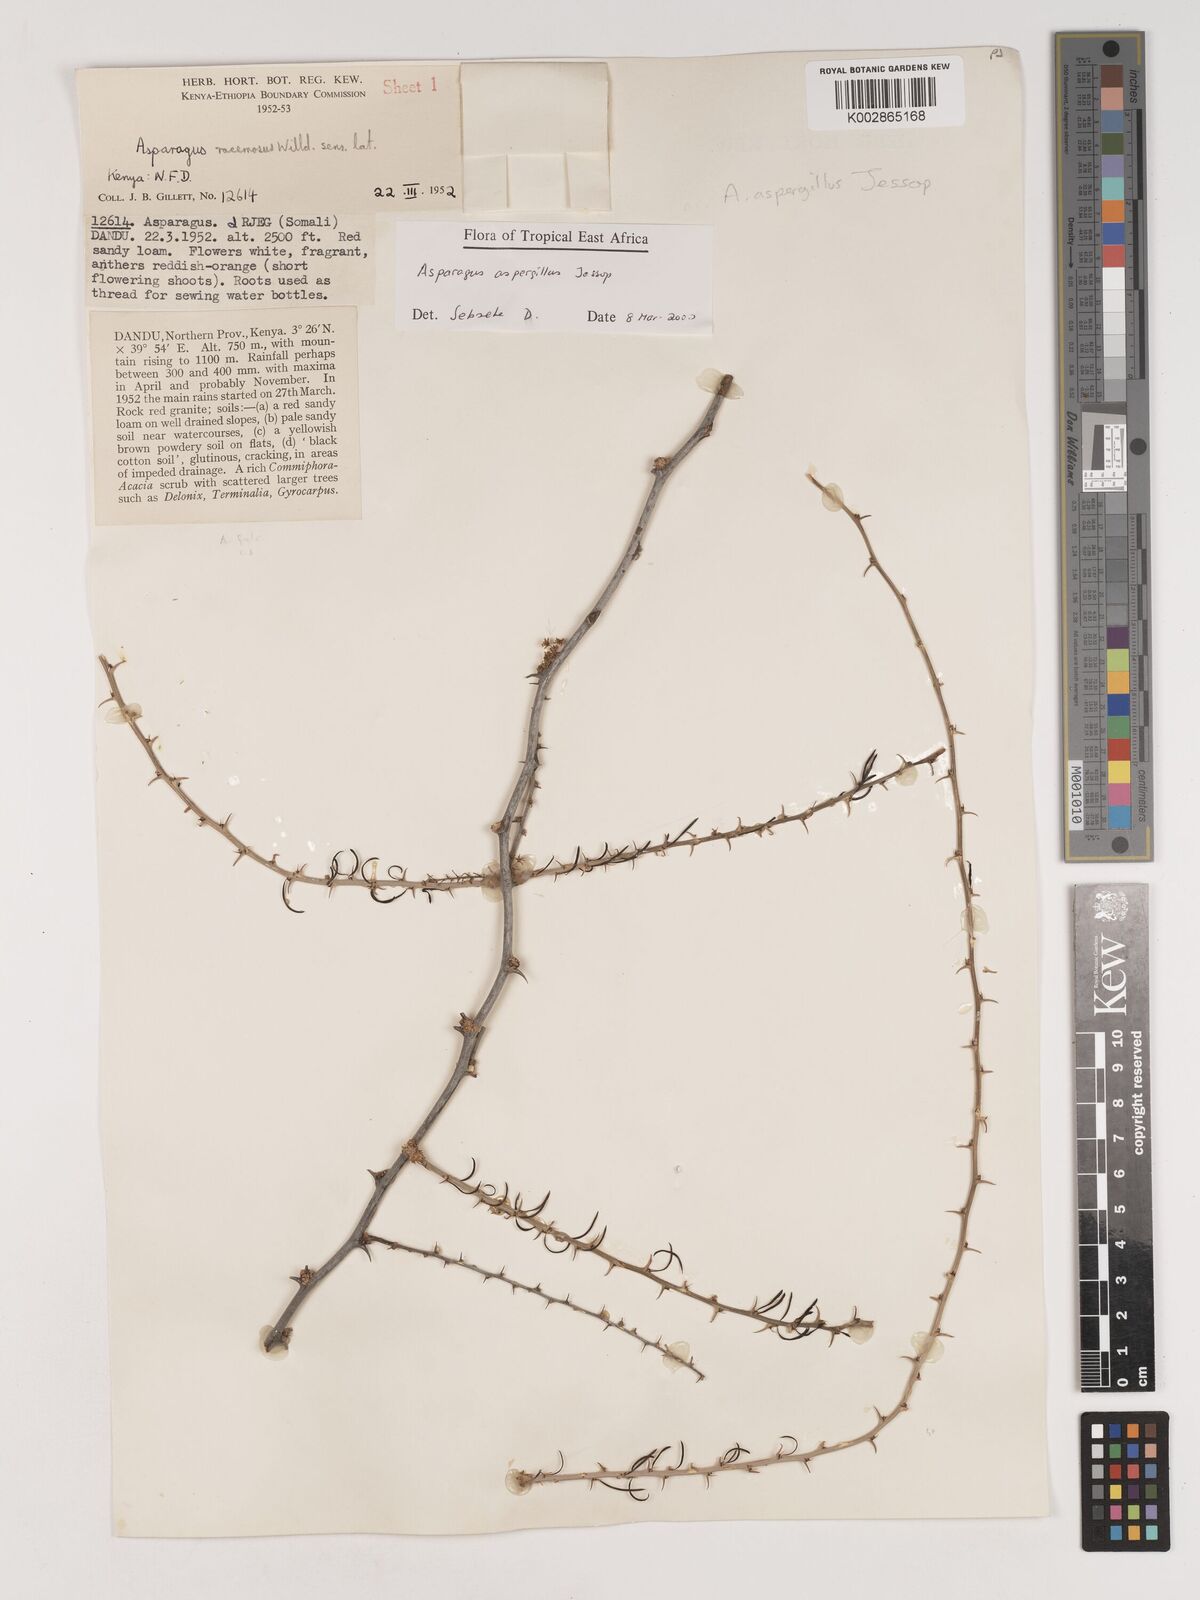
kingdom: Plantae
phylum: Tracheophyta
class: Liliopsida
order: Asparagales
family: Asparagaceae
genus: Asparagus
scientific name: Asparagus aspergillus
